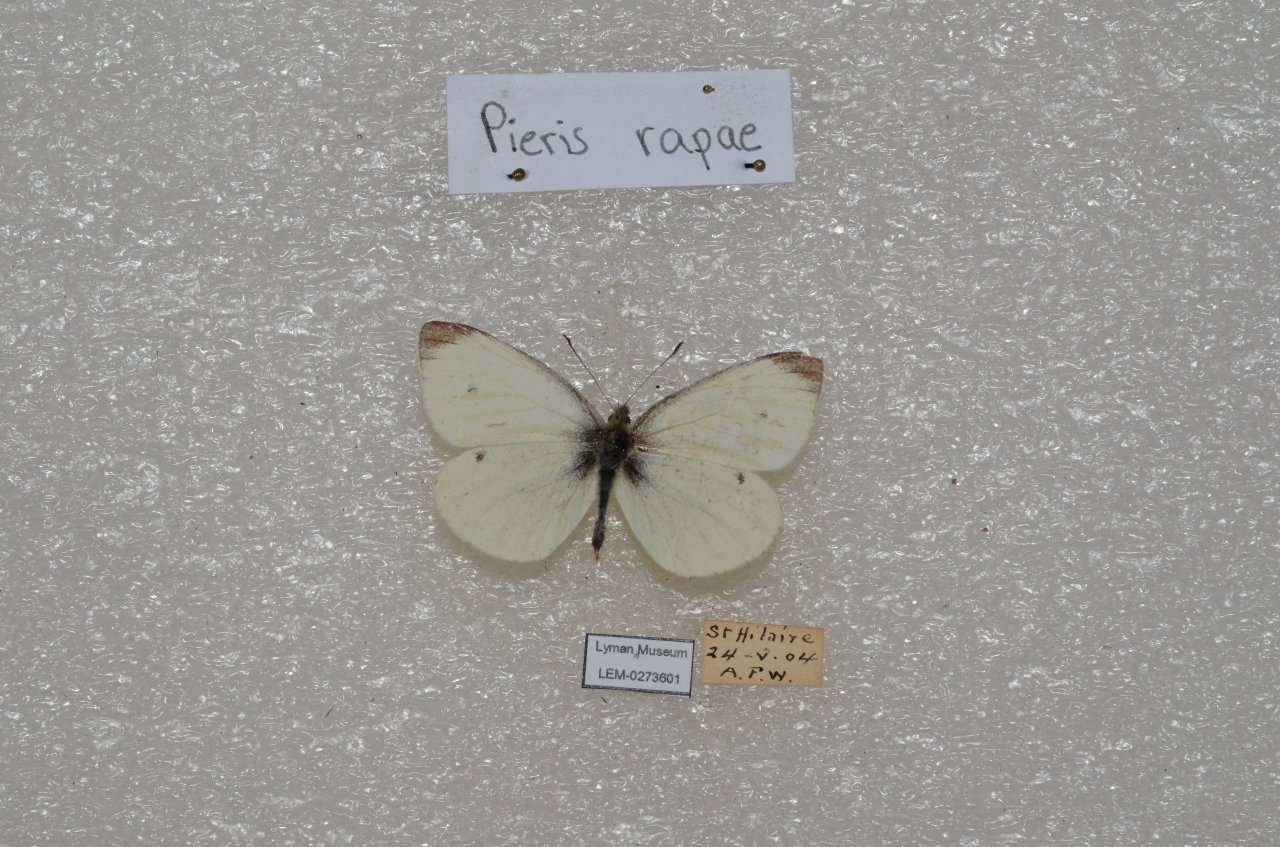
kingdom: Animalia
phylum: Arthropoda
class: Insecta
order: Lepidoptera
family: Pieridae
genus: Pieris
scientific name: Pieris rapae
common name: Cabbage White
